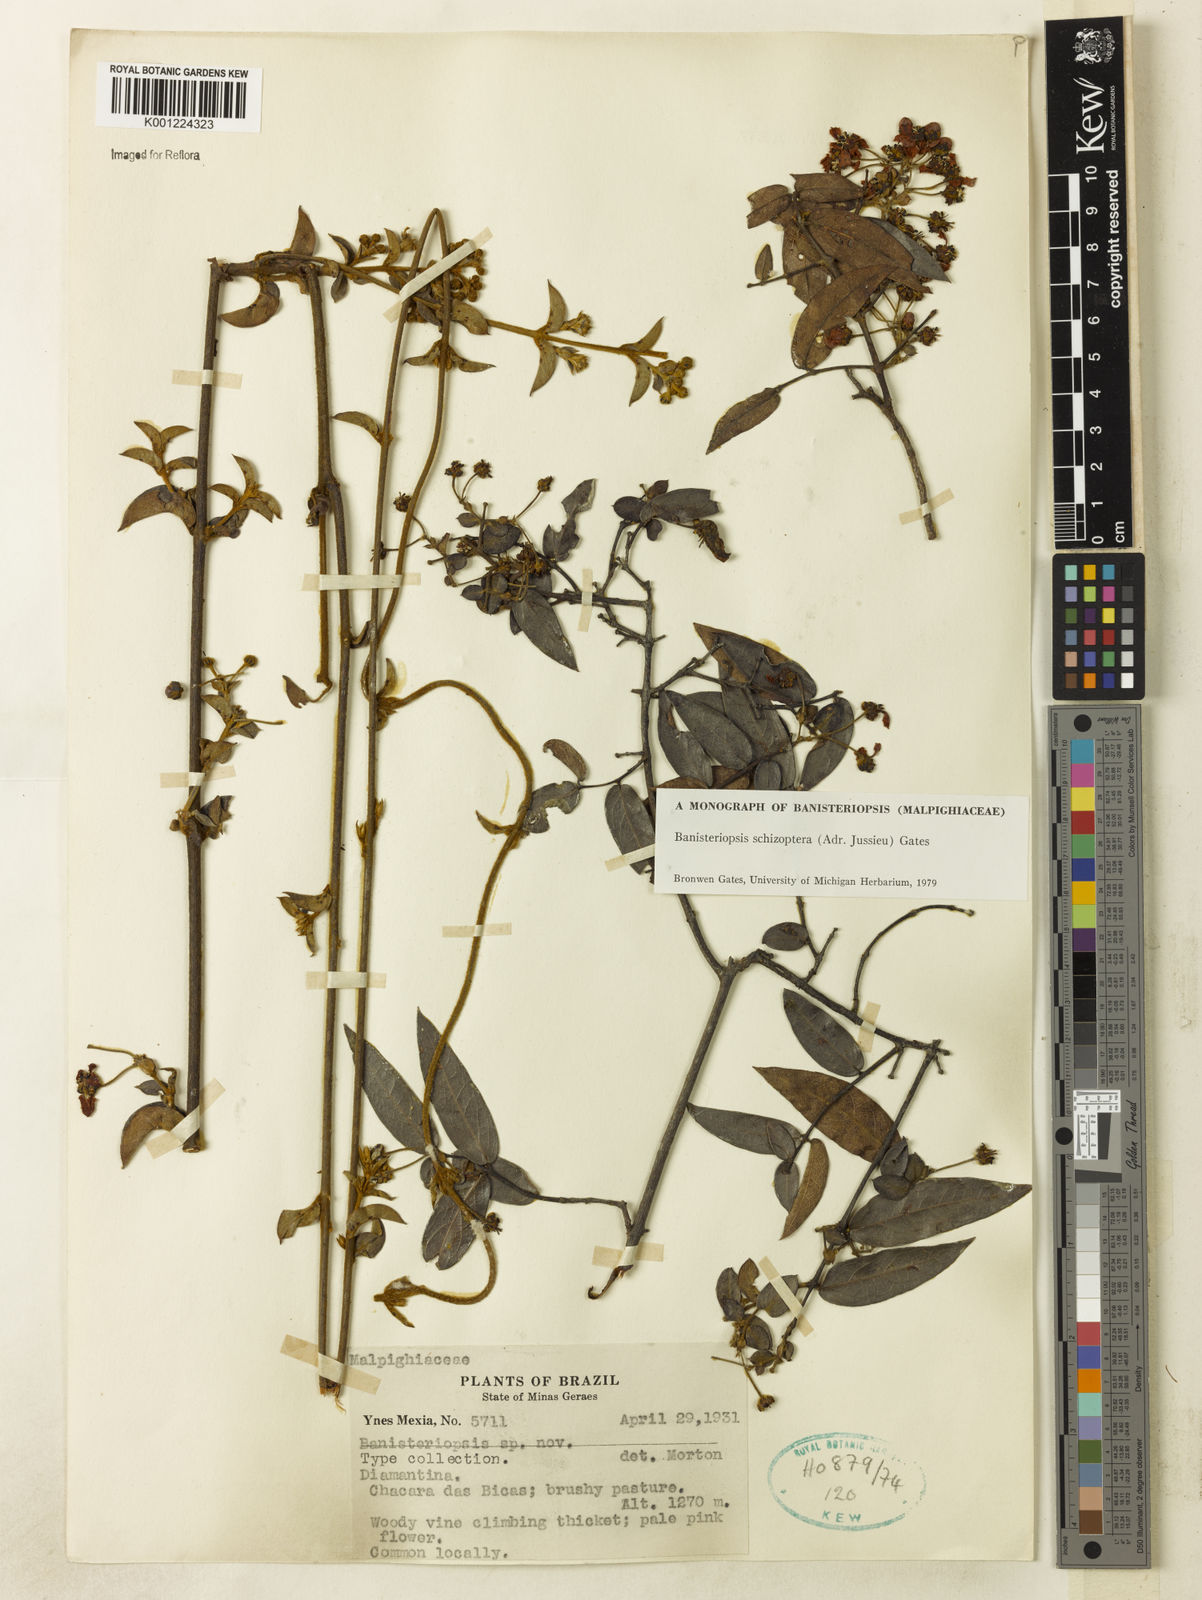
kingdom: Plantae
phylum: Tracheophyta
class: Magnoliopsida
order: Malpighiales
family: Malpighiaceae
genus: Banisteriopsis
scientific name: Banisteriopsis schizoptera
